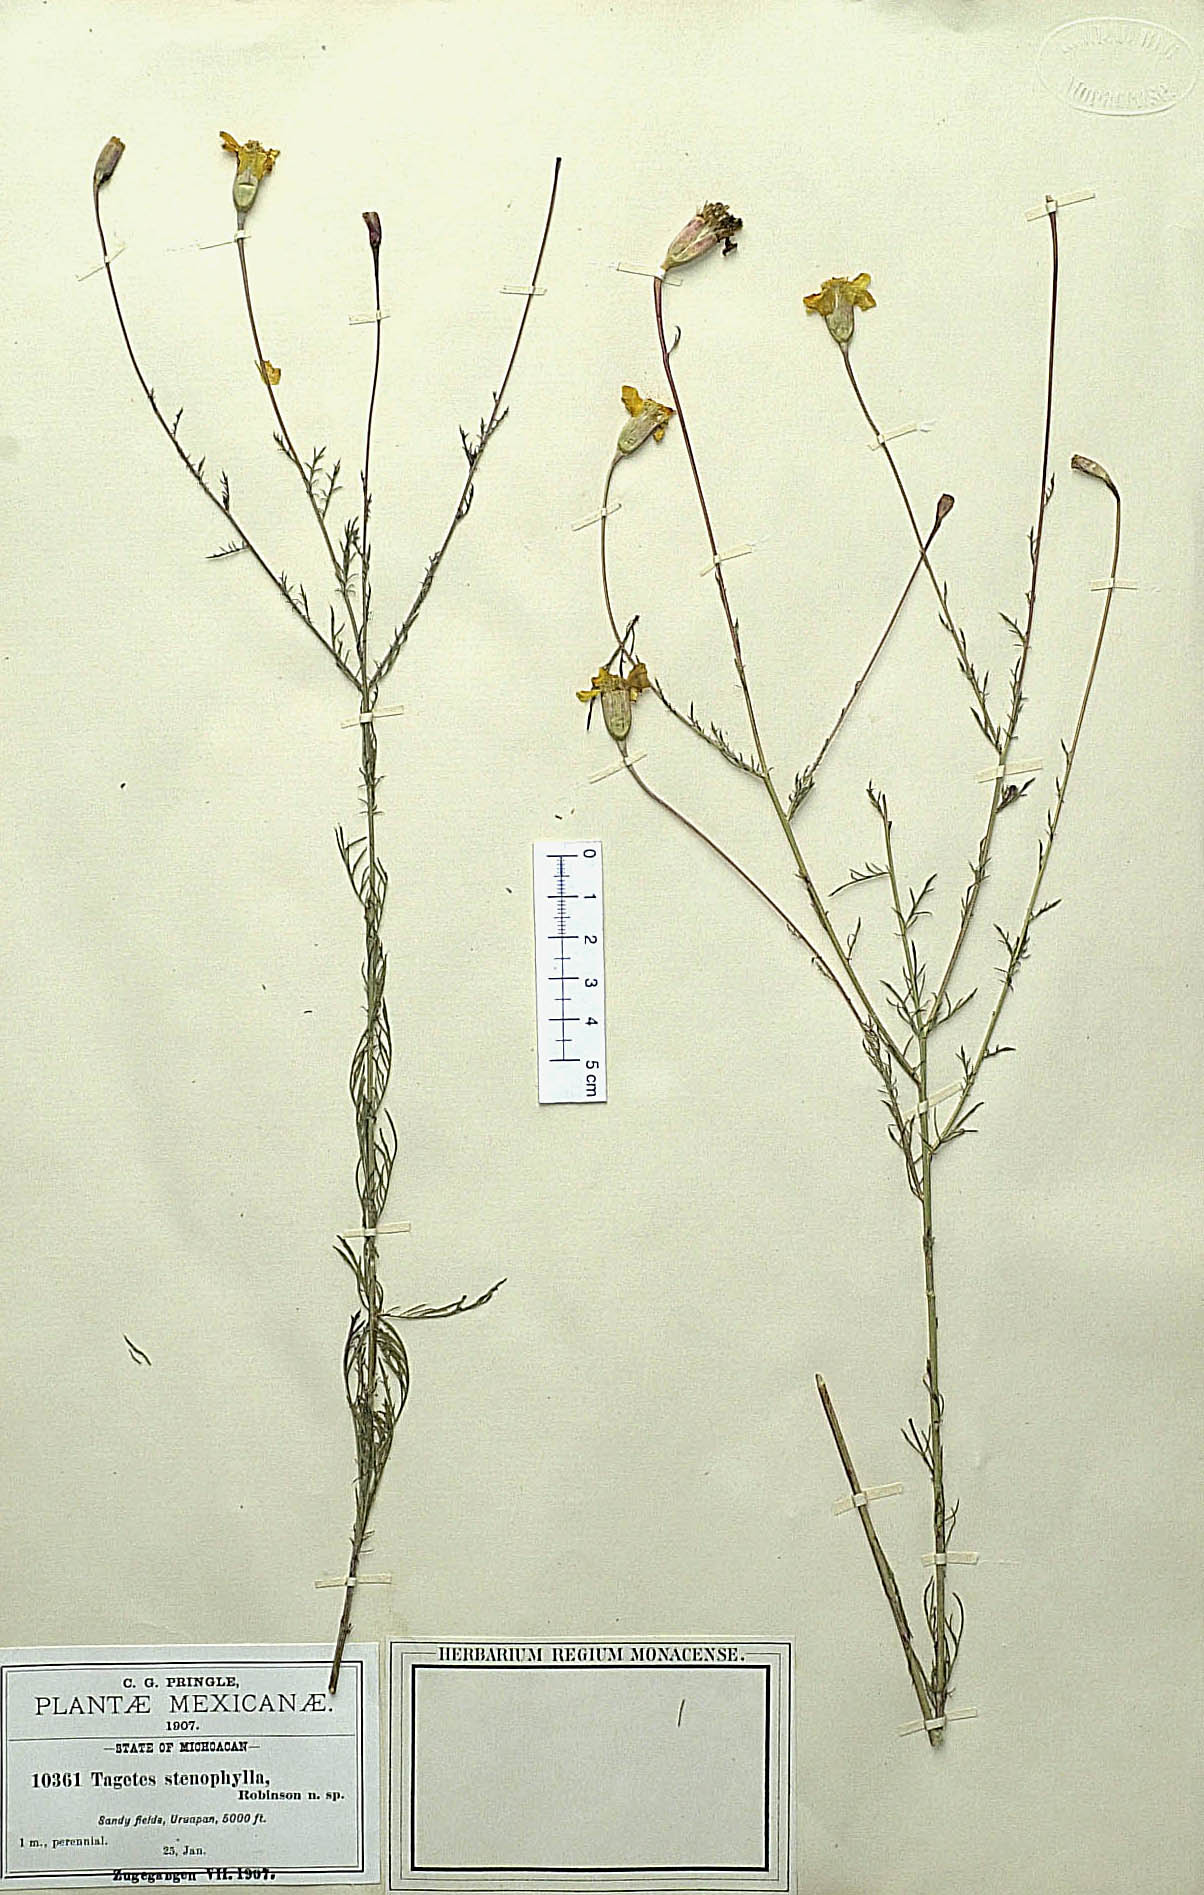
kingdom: Plantae
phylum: Tracheophyta
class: Magnoliopsida
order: Asterales
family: Asteraceae
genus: Tagetes
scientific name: Tagetes stenophylla
